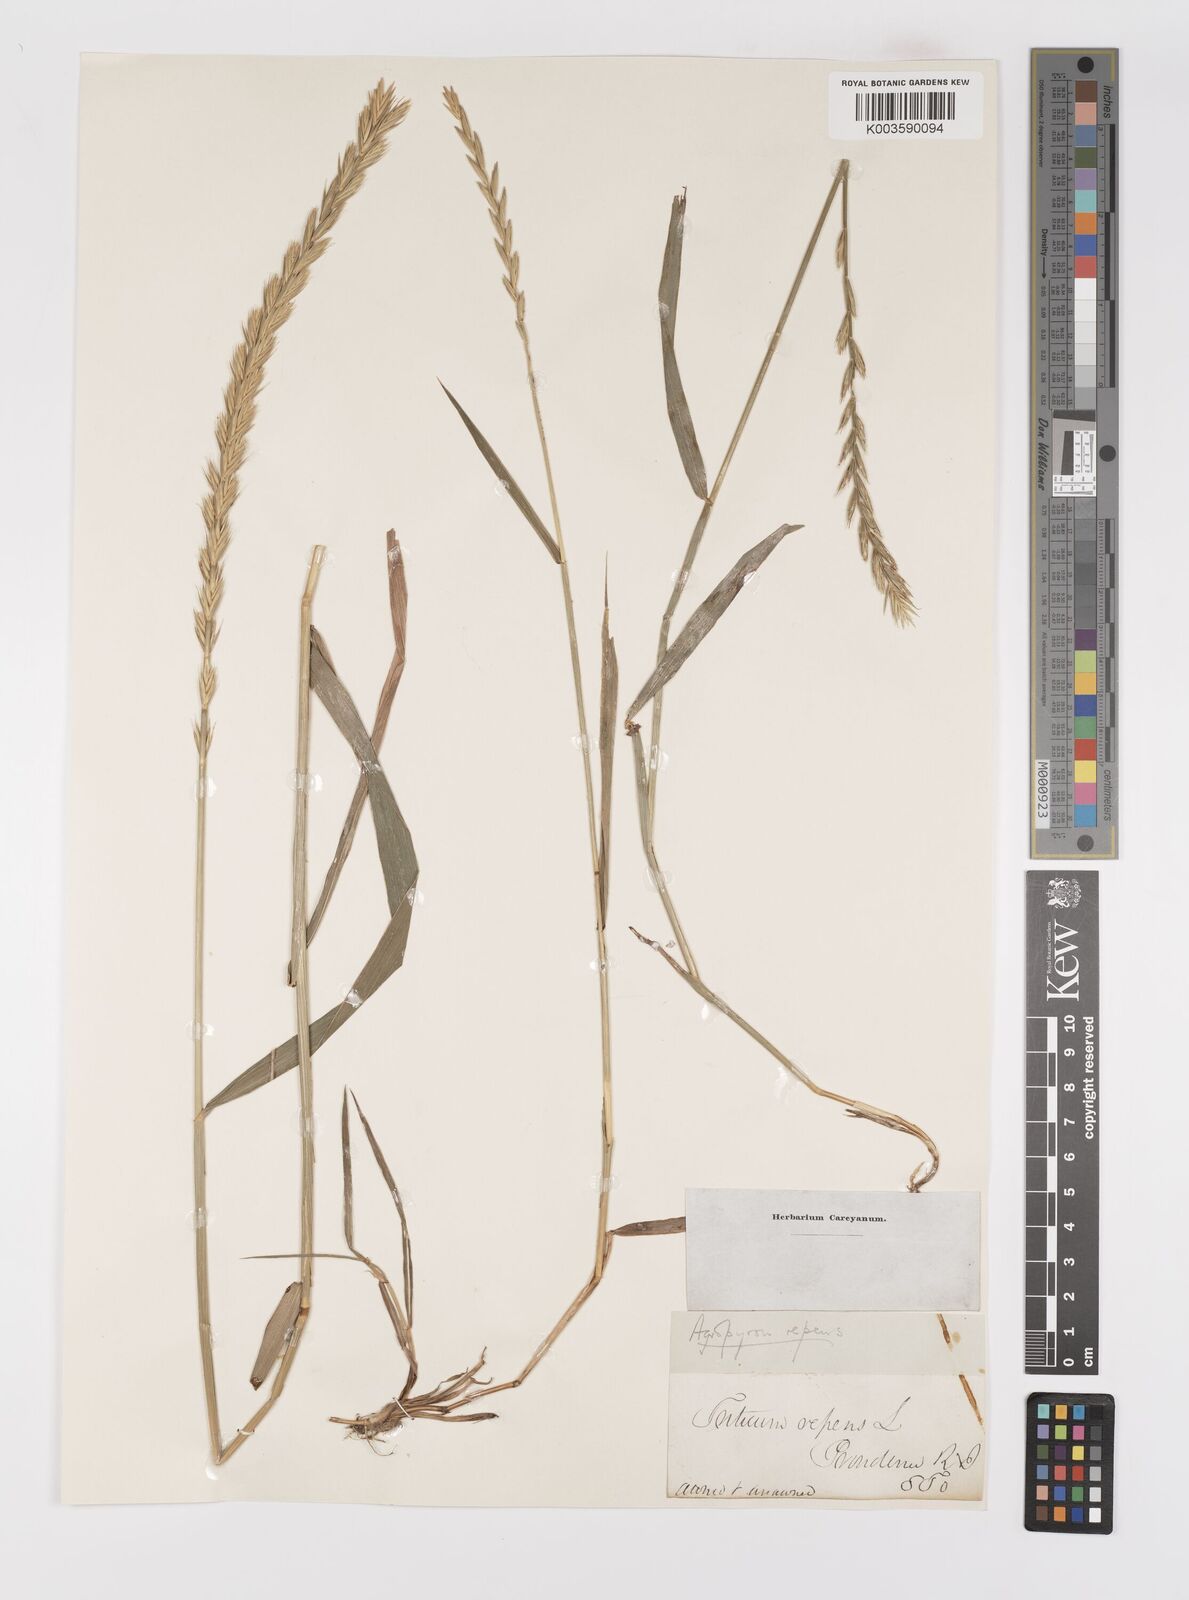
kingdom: Plantae
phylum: Tracheophyta
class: Liliopsida
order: Poales
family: Poaceae
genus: Elymus
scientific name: Elymus repens
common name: Quackgrass
